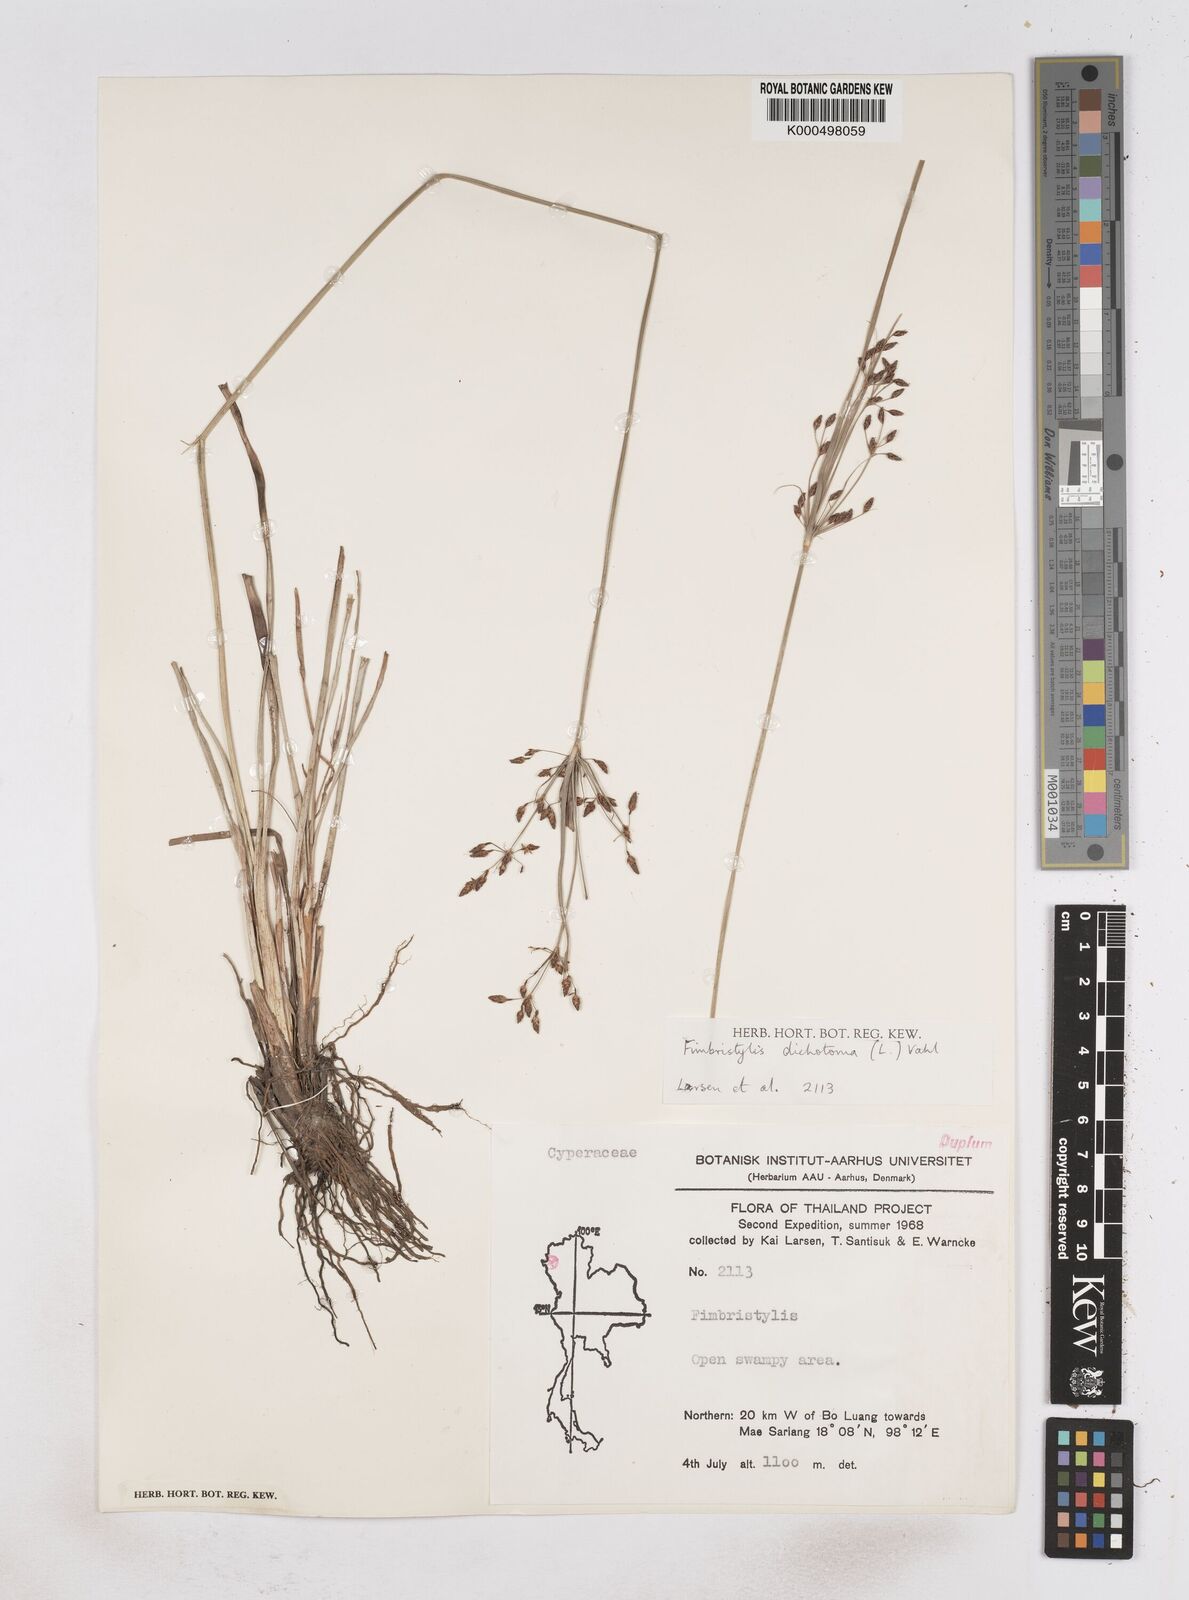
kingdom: Plantae
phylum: Tracheophyta
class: Liliopsida
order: Poales
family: Cyperaceae
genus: Fimbristylis
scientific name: Fimbristylis dichotoma
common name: Forked fimbry
